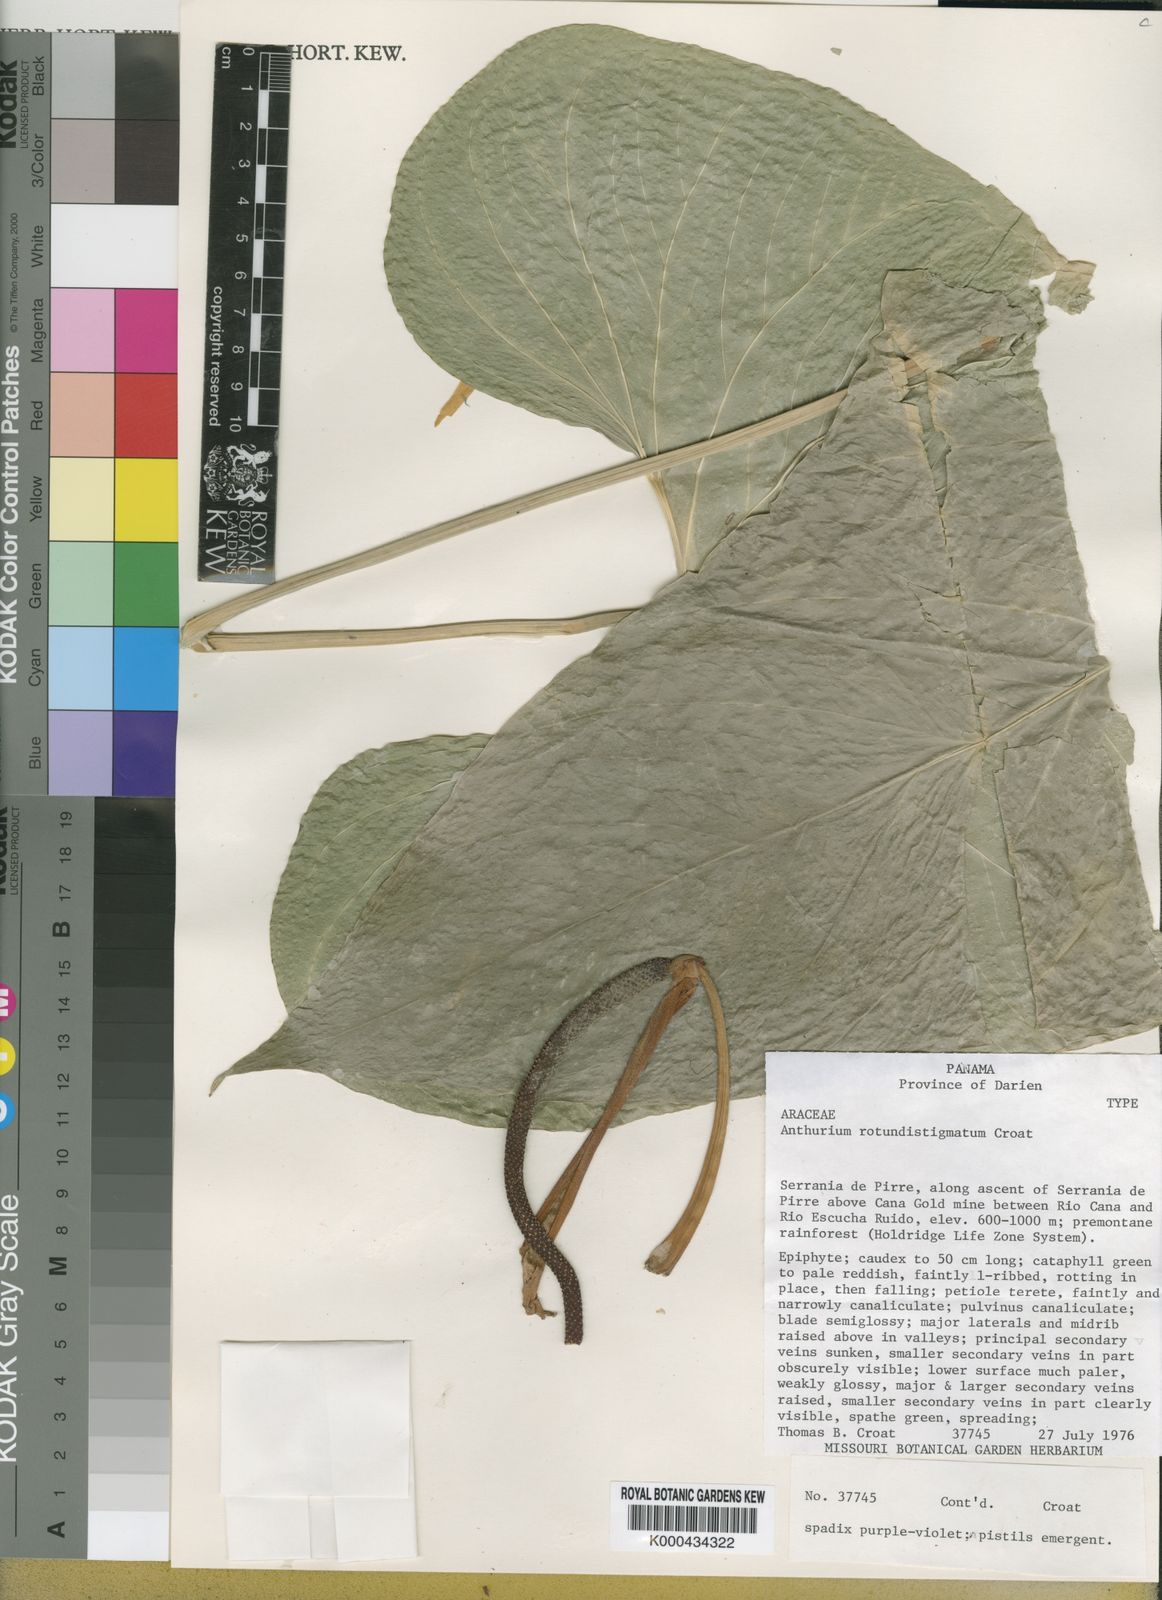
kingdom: Plantae
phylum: Tracheophyta
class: Liliopsida
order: Alismatales
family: Araceae
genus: Anthurium
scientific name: Anthurium rotundistigmatum
